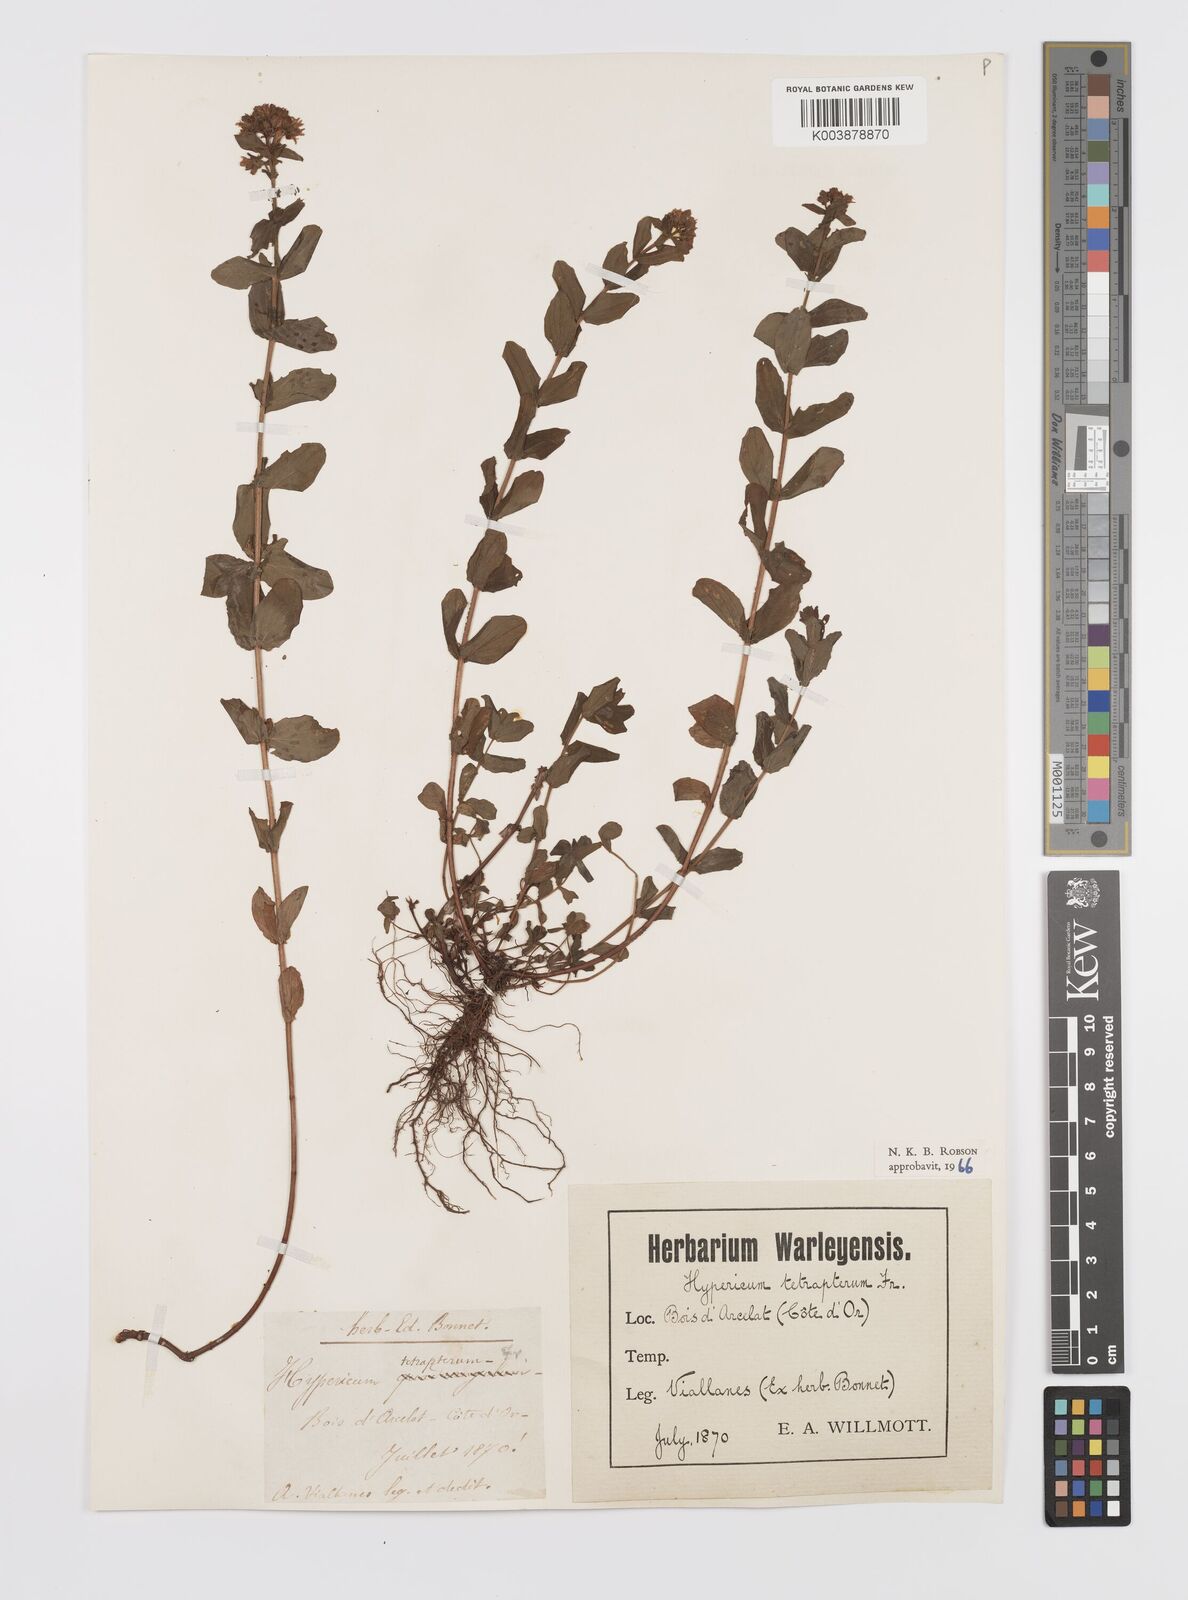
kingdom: Plantae
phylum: Tracheophyta
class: Magnoliopsida
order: Malpighiales
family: Hypericaceae
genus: Hypericum
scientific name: Hypericum tetrapterum
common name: Square-stalked st. john's-wort
